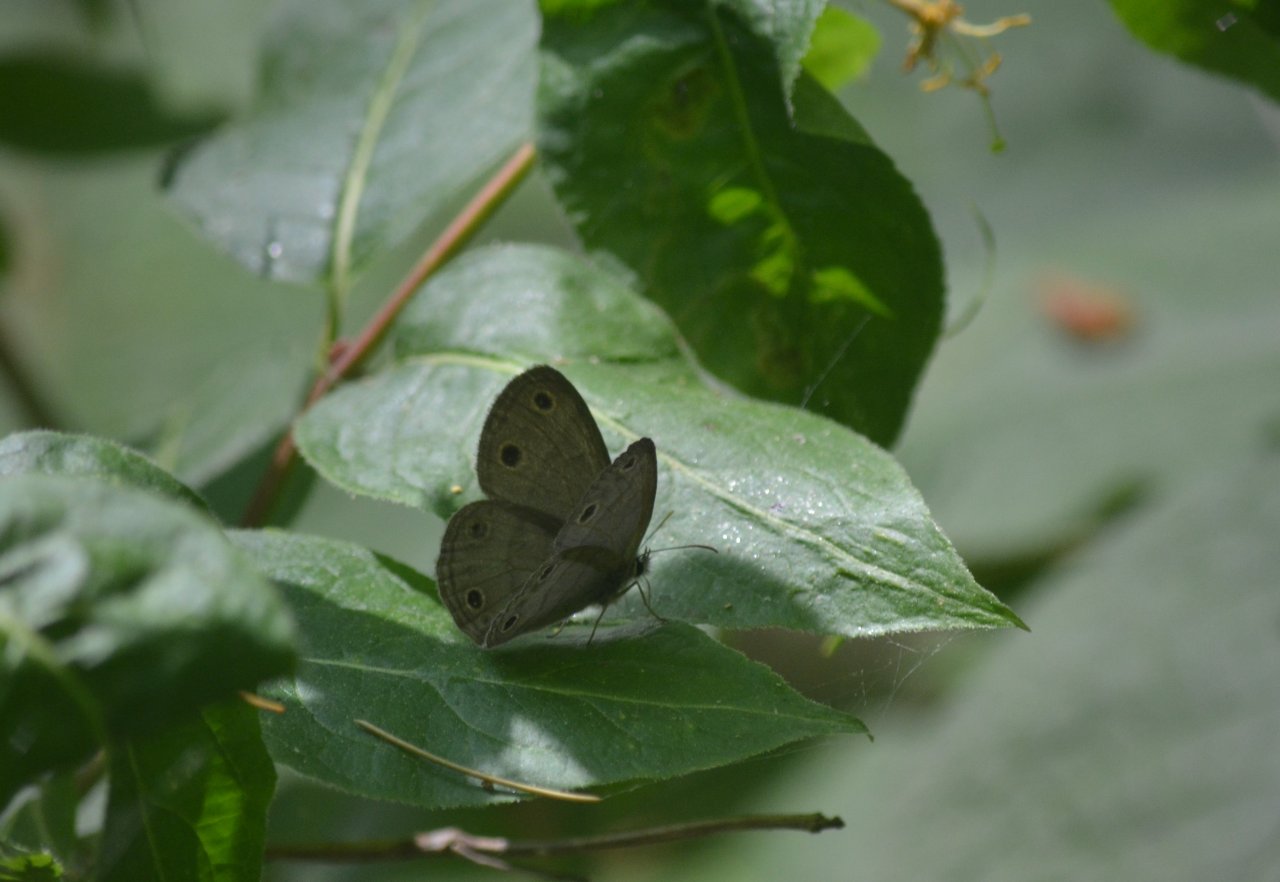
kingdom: Animalia
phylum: Arthropoda
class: Insecta
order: Lepidoptera
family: Nymphalidae
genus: Euptychia
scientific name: Euptychia cymela
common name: Little Wood Satyr
